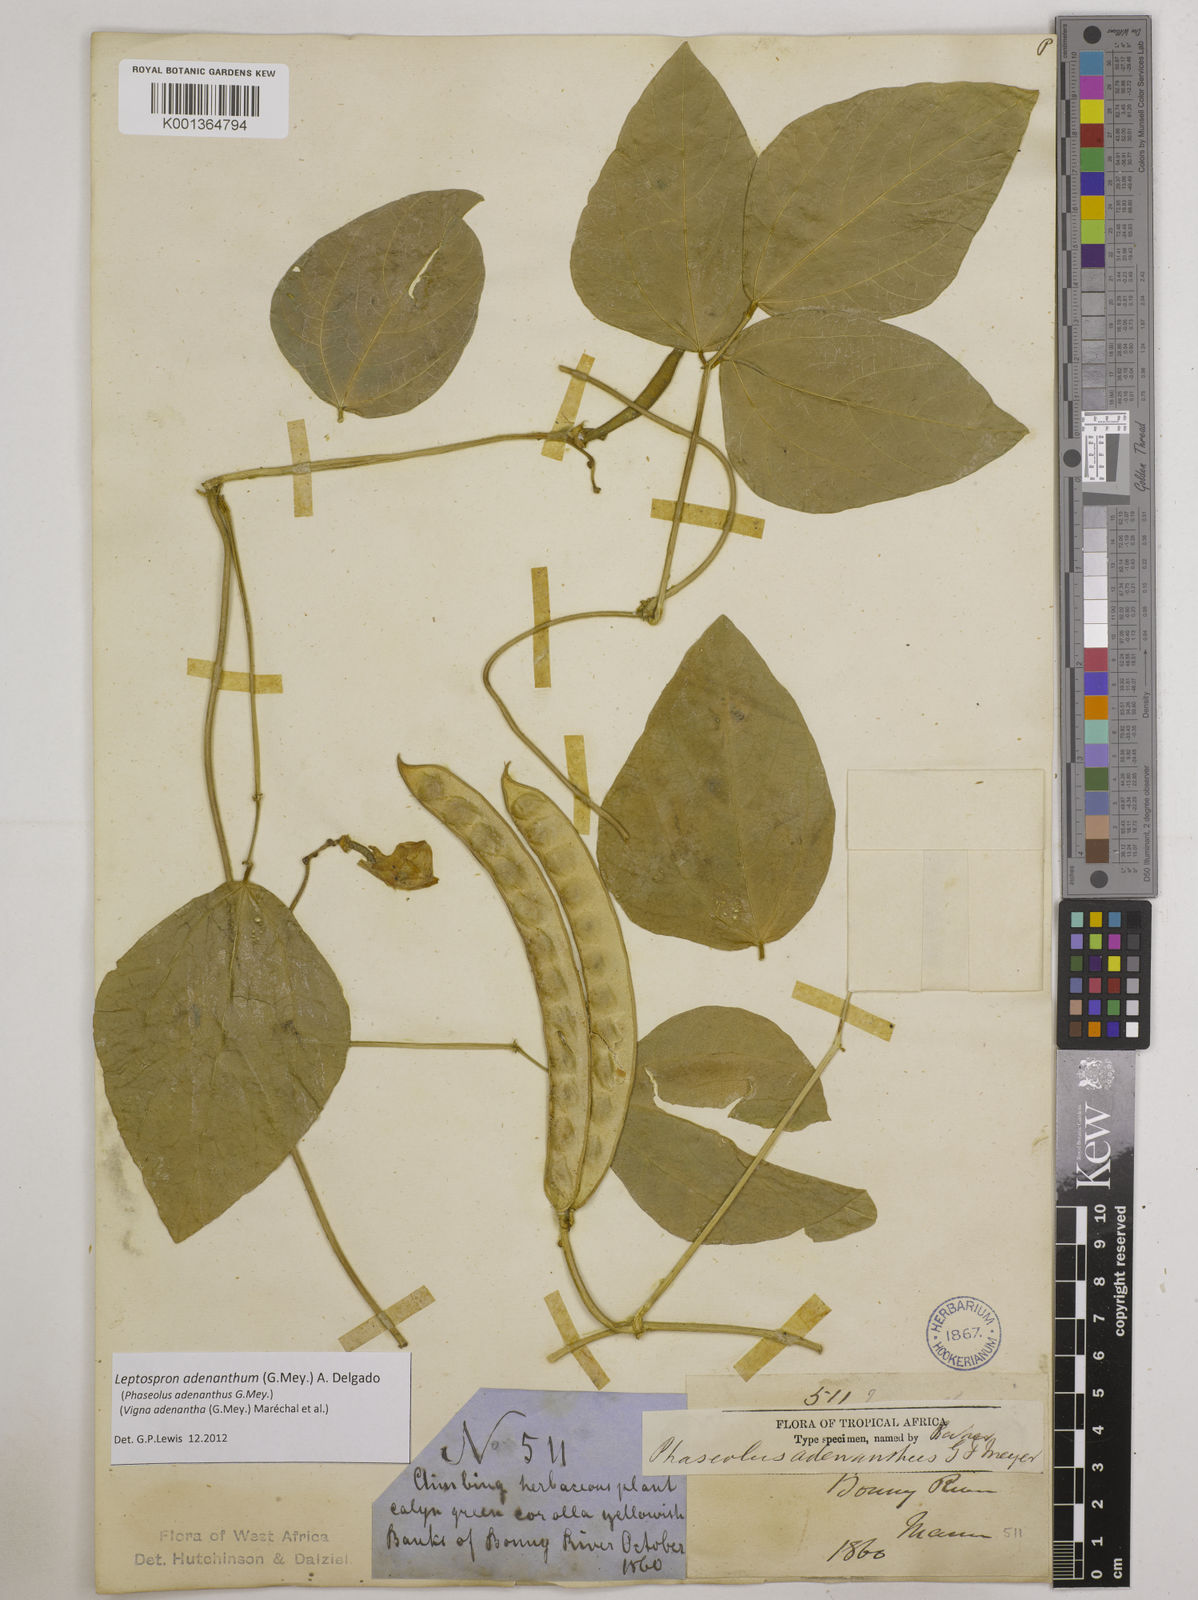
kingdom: Plantae
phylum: Tracheophyta
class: Magnoliopsida
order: Fabales
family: Fabaceae
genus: Leptospron
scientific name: Leptospron adenanthum
